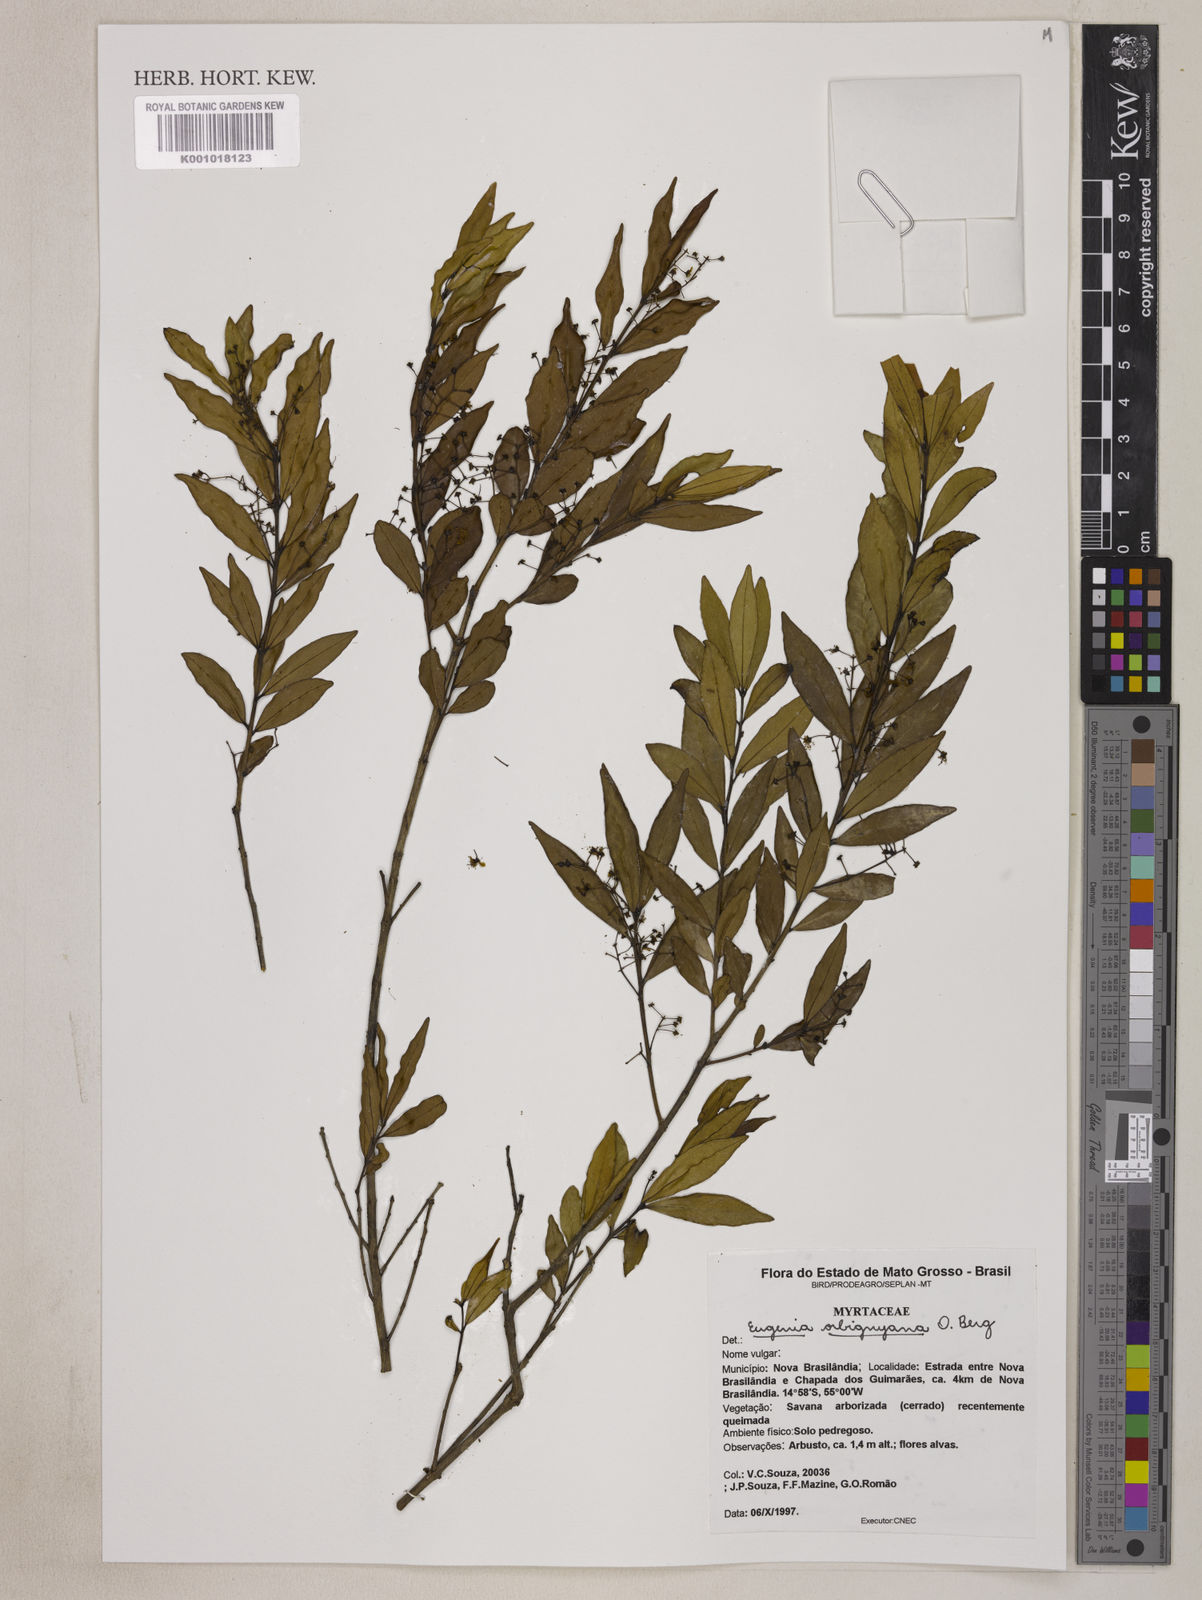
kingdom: Plantae
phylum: Tracheophyta
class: Magnoliopsida
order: Myrtales
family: Myrtaceae
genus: Eugenia
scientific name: Eugenia orbignyana
